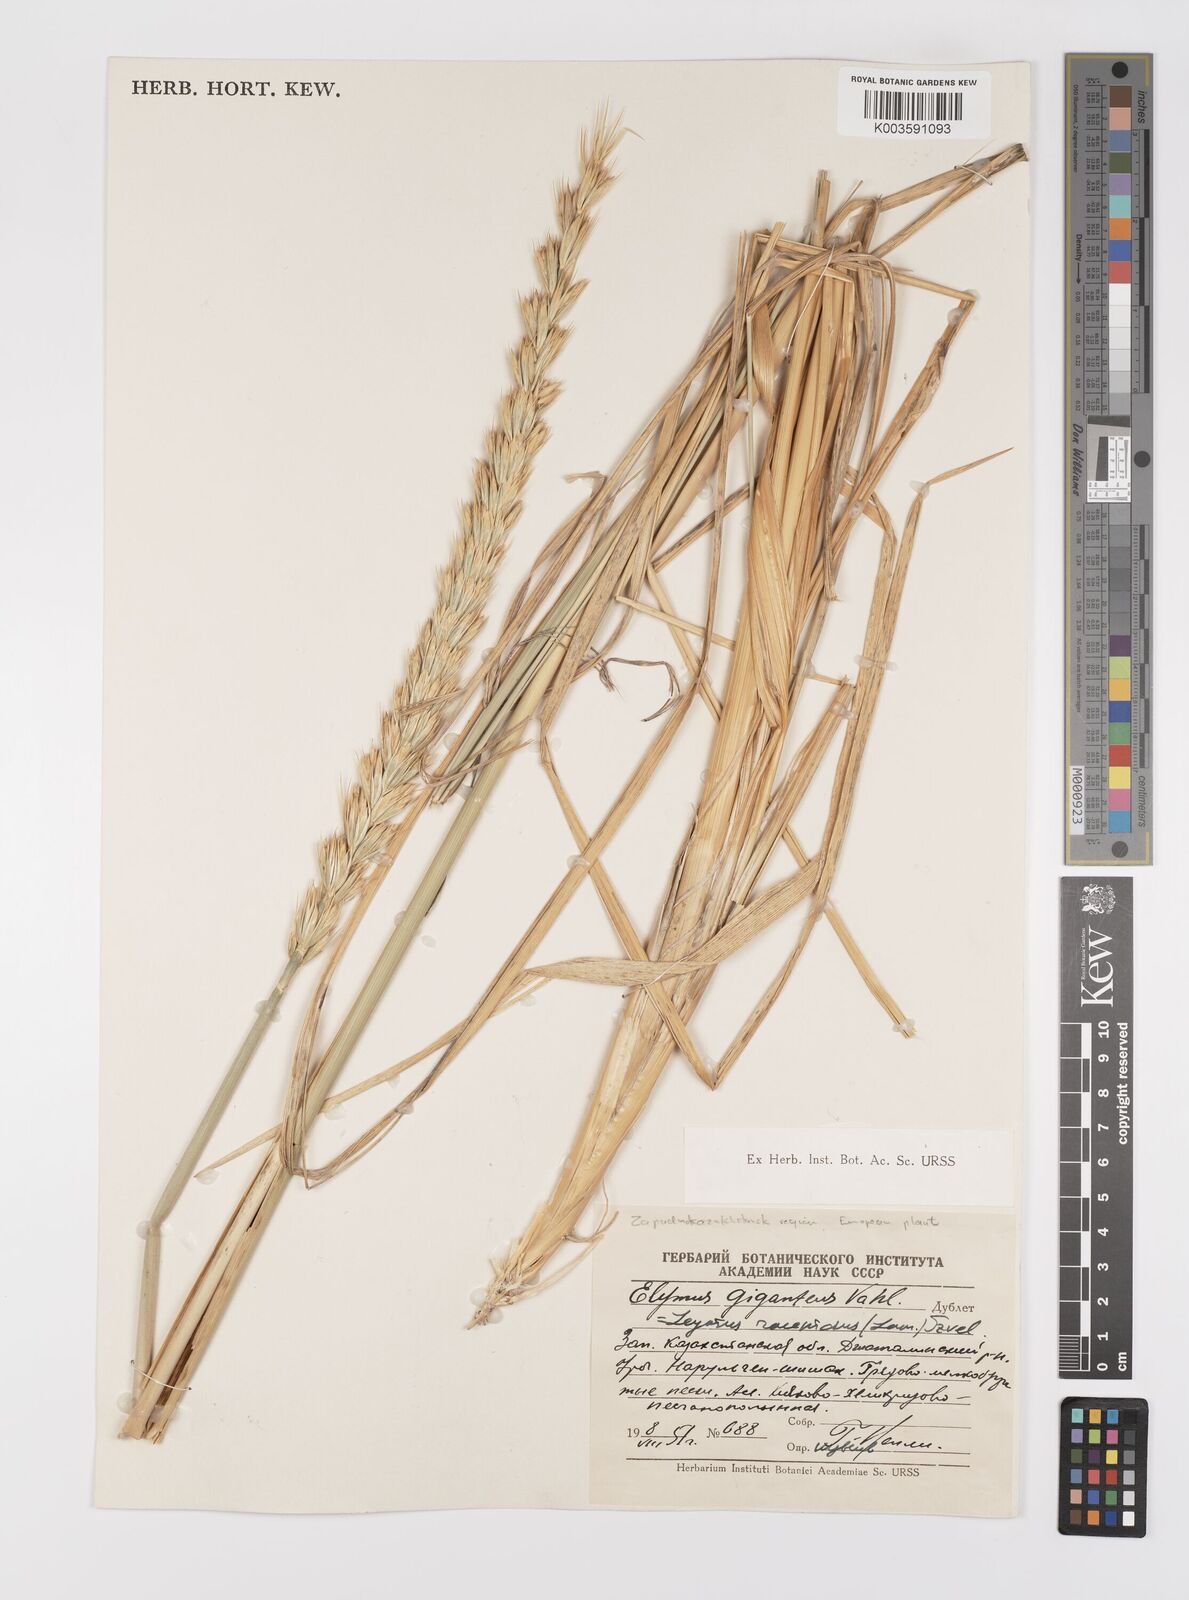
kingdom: Plantae
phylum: Tracheophyta
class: Liliopsida
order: Poales
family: Poaceae
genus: Leymus
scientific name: Leymus racemosus
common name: Mammoth wildrye
